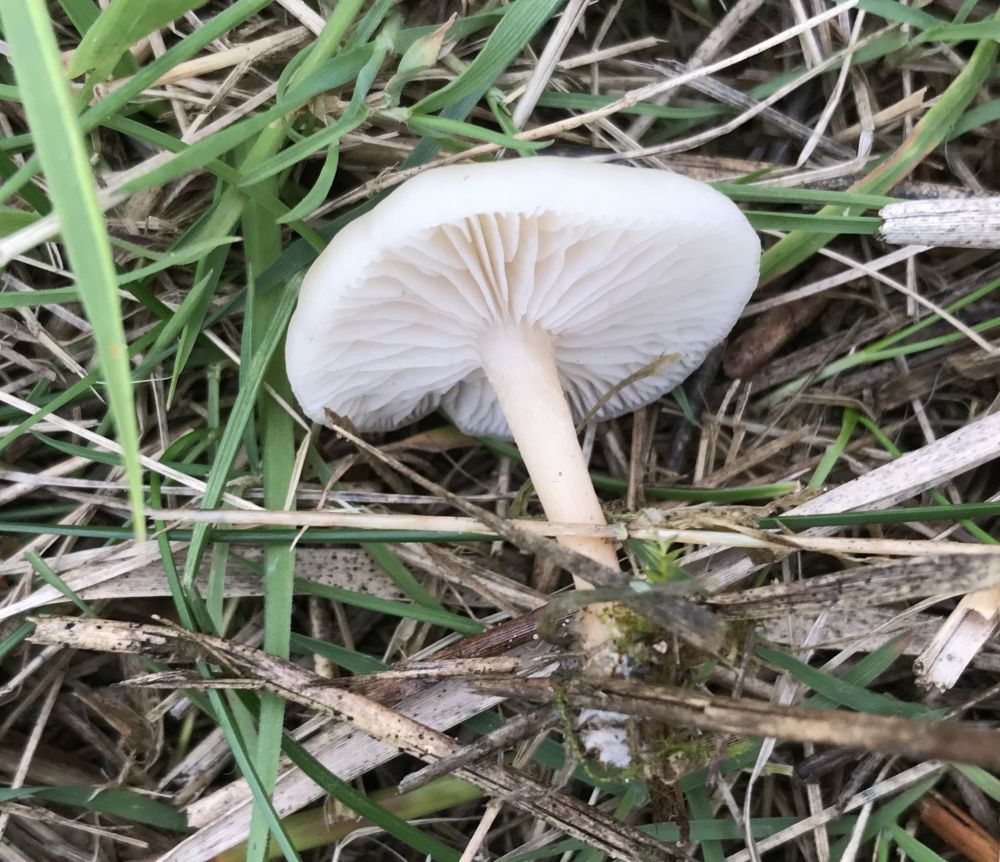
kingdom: Fungi
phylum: Basidiomycota
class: Agaricomycetes
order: Agaricales
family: Tricholomataceae
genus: Clitocybe
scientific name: Clitocybe
